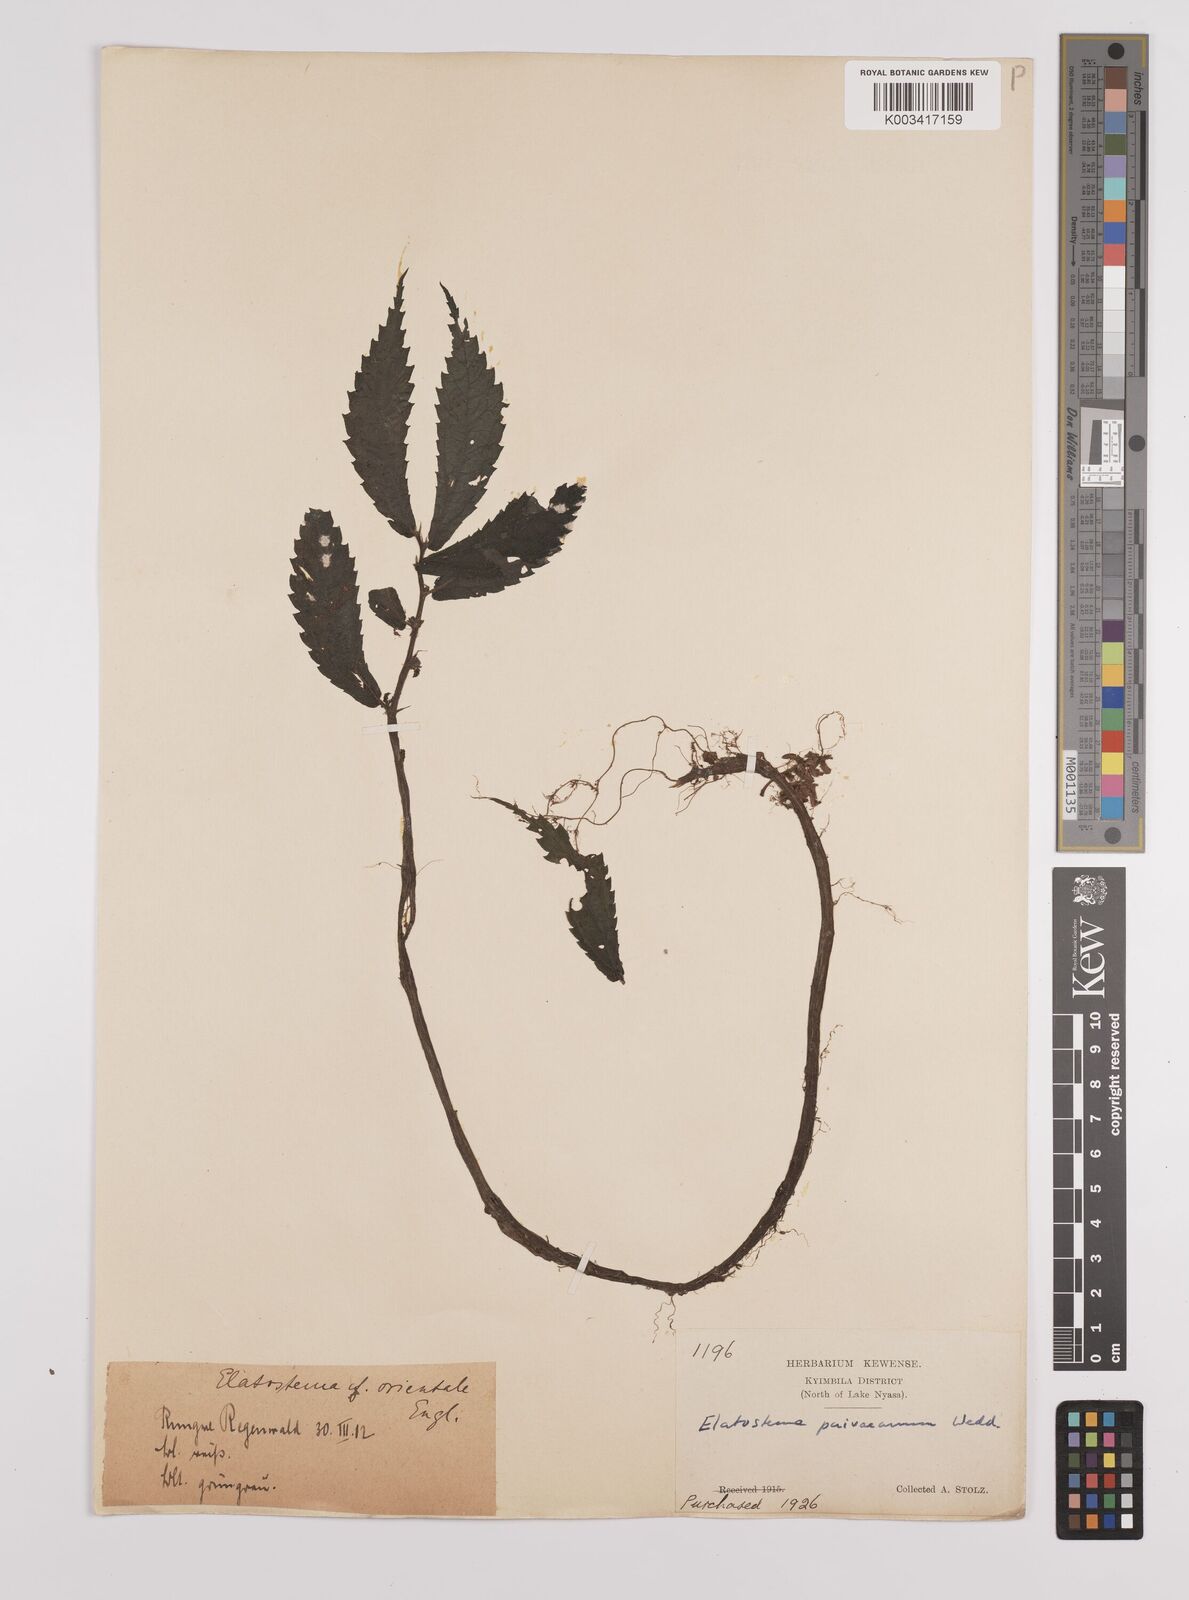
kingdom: Plantae
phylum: Tracheophyta
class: Magnoliopsida
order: Rosales
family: Urticaceae
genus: Elatostema
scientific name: Elatostema paivaeanum
